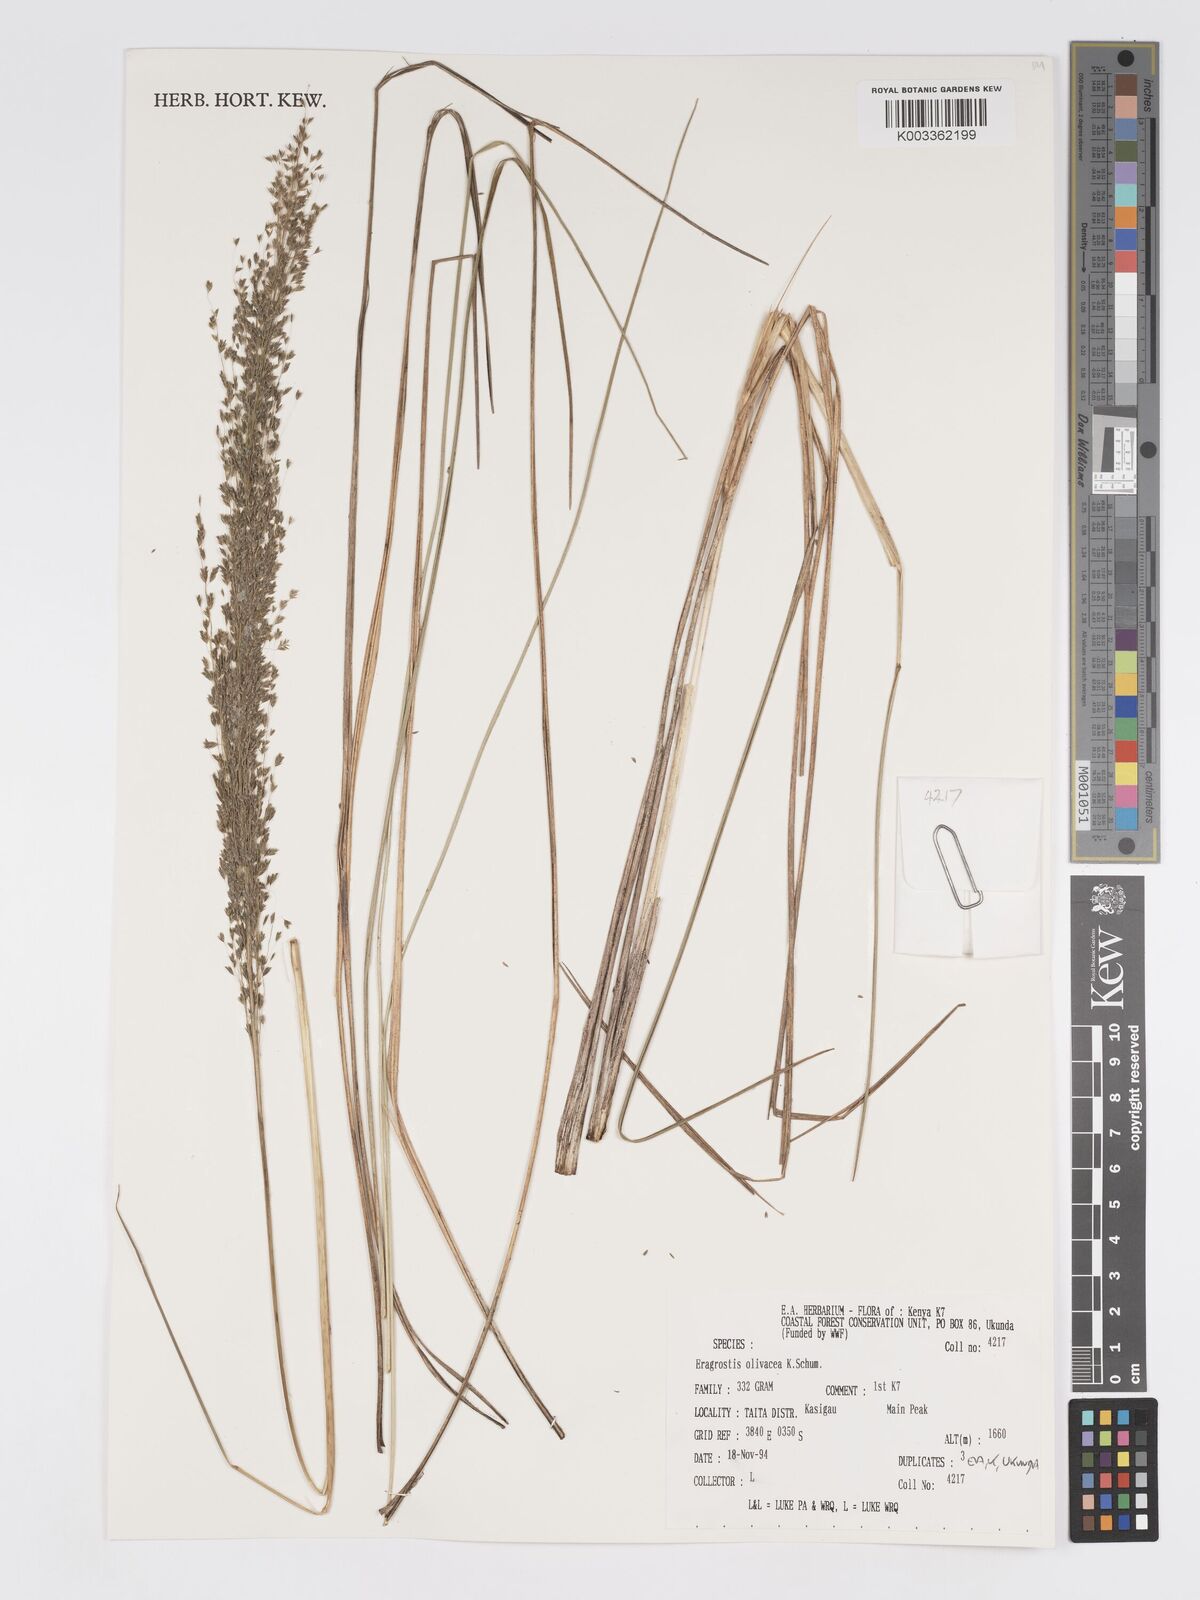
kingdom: Plantae
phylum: Tracheophyta
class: Liliopsida
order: Poales
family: Poaceae
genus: Eragrostis
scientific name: Eragrostis olivacea
